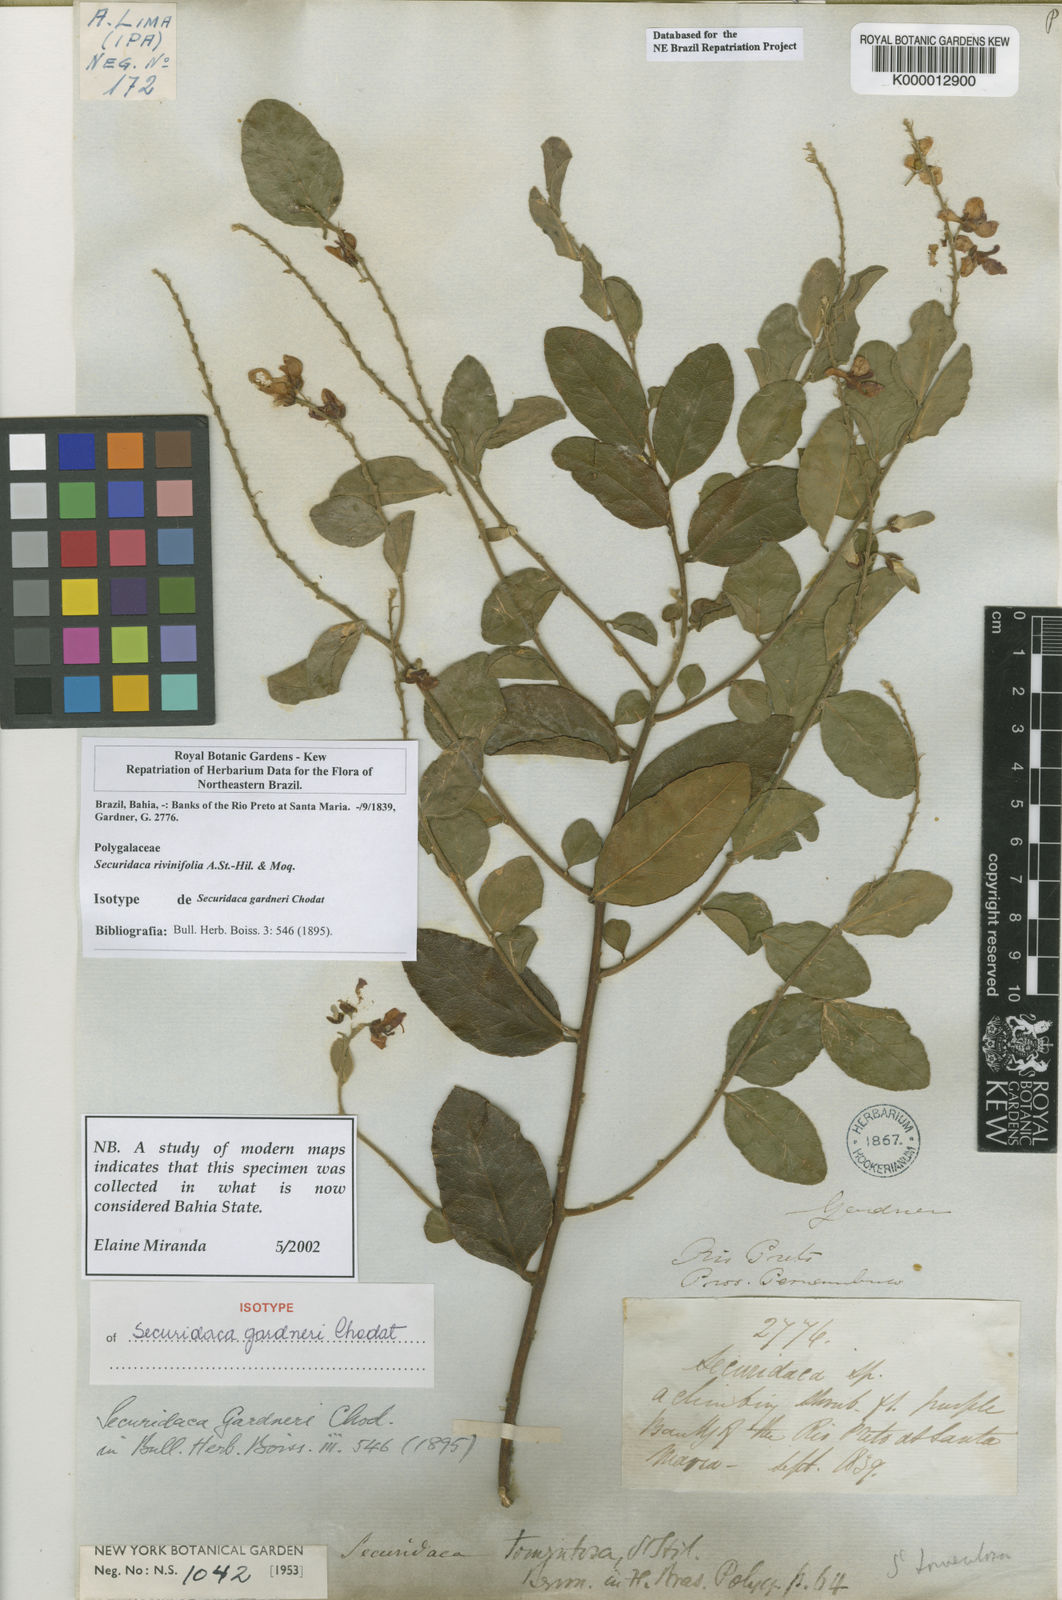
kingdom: Plantae
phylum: Tracheophyta
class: Magnoliopsida
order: Fabales
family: Polygalaceae
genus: Securidaca
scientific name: Securidaca rivinifolia
